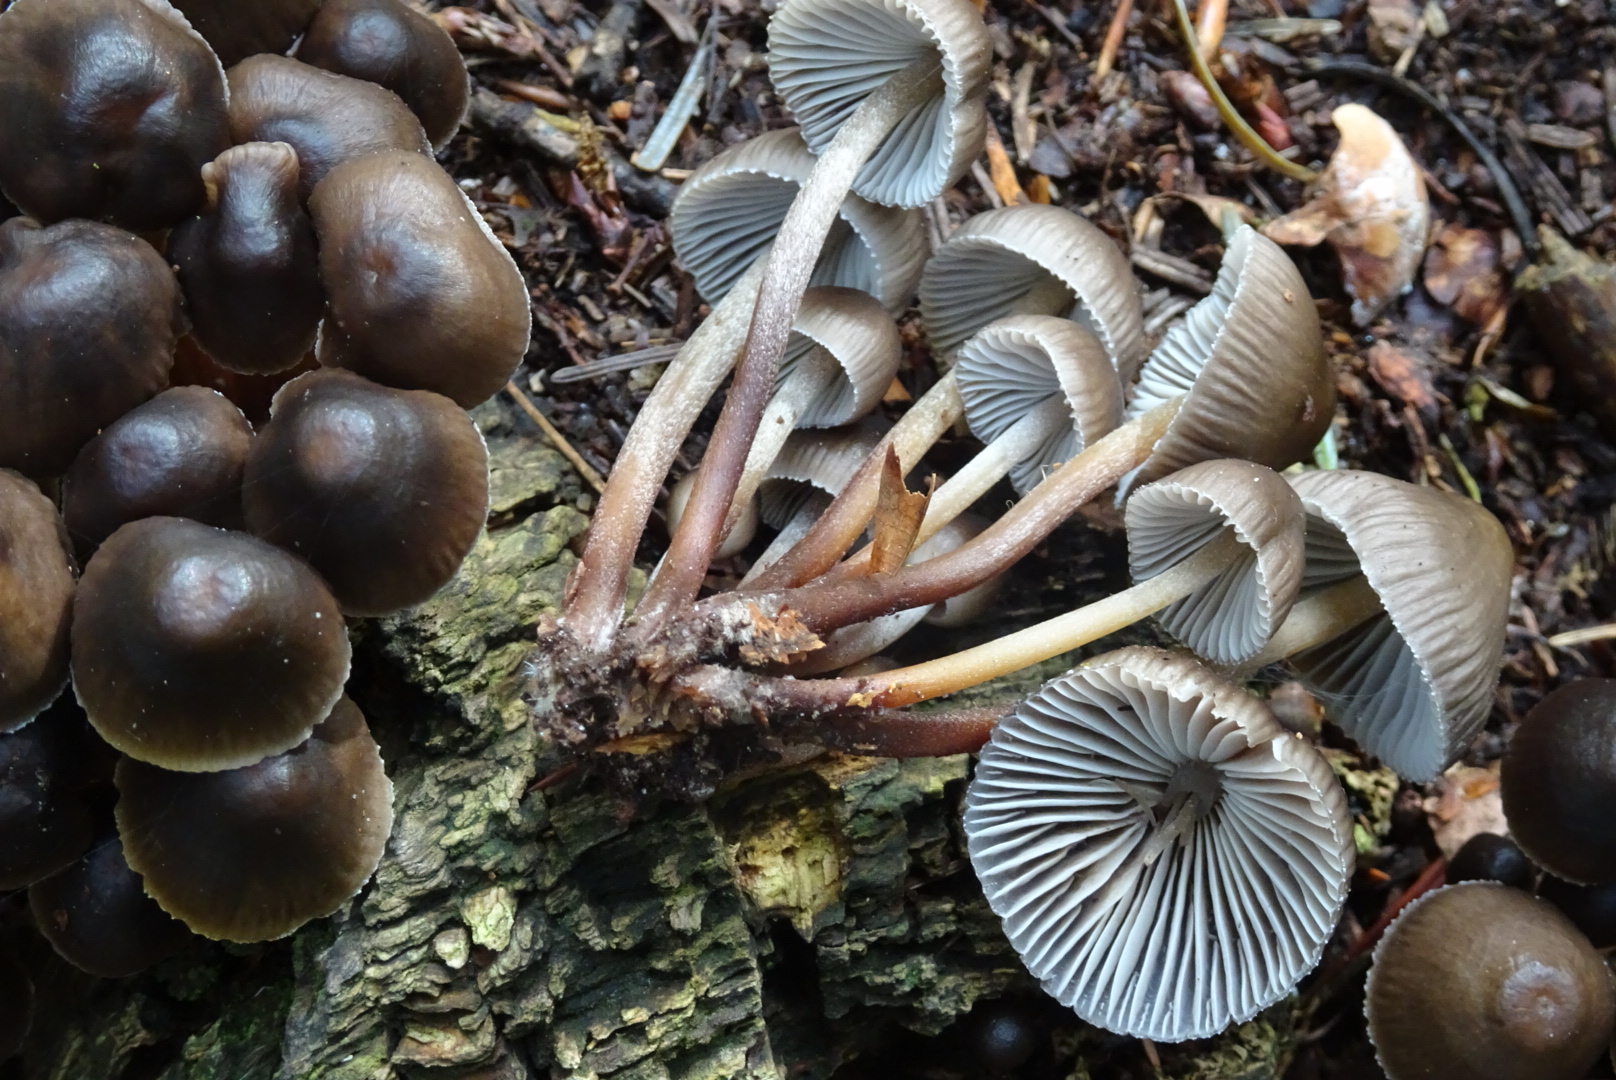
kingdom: Fungi
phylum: Basidiomycota
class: Agaricomycetes
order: Agaricales
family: Mycenaceae
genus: Mycena
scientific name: Mycena inclinata
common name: nikkende huesvamp
